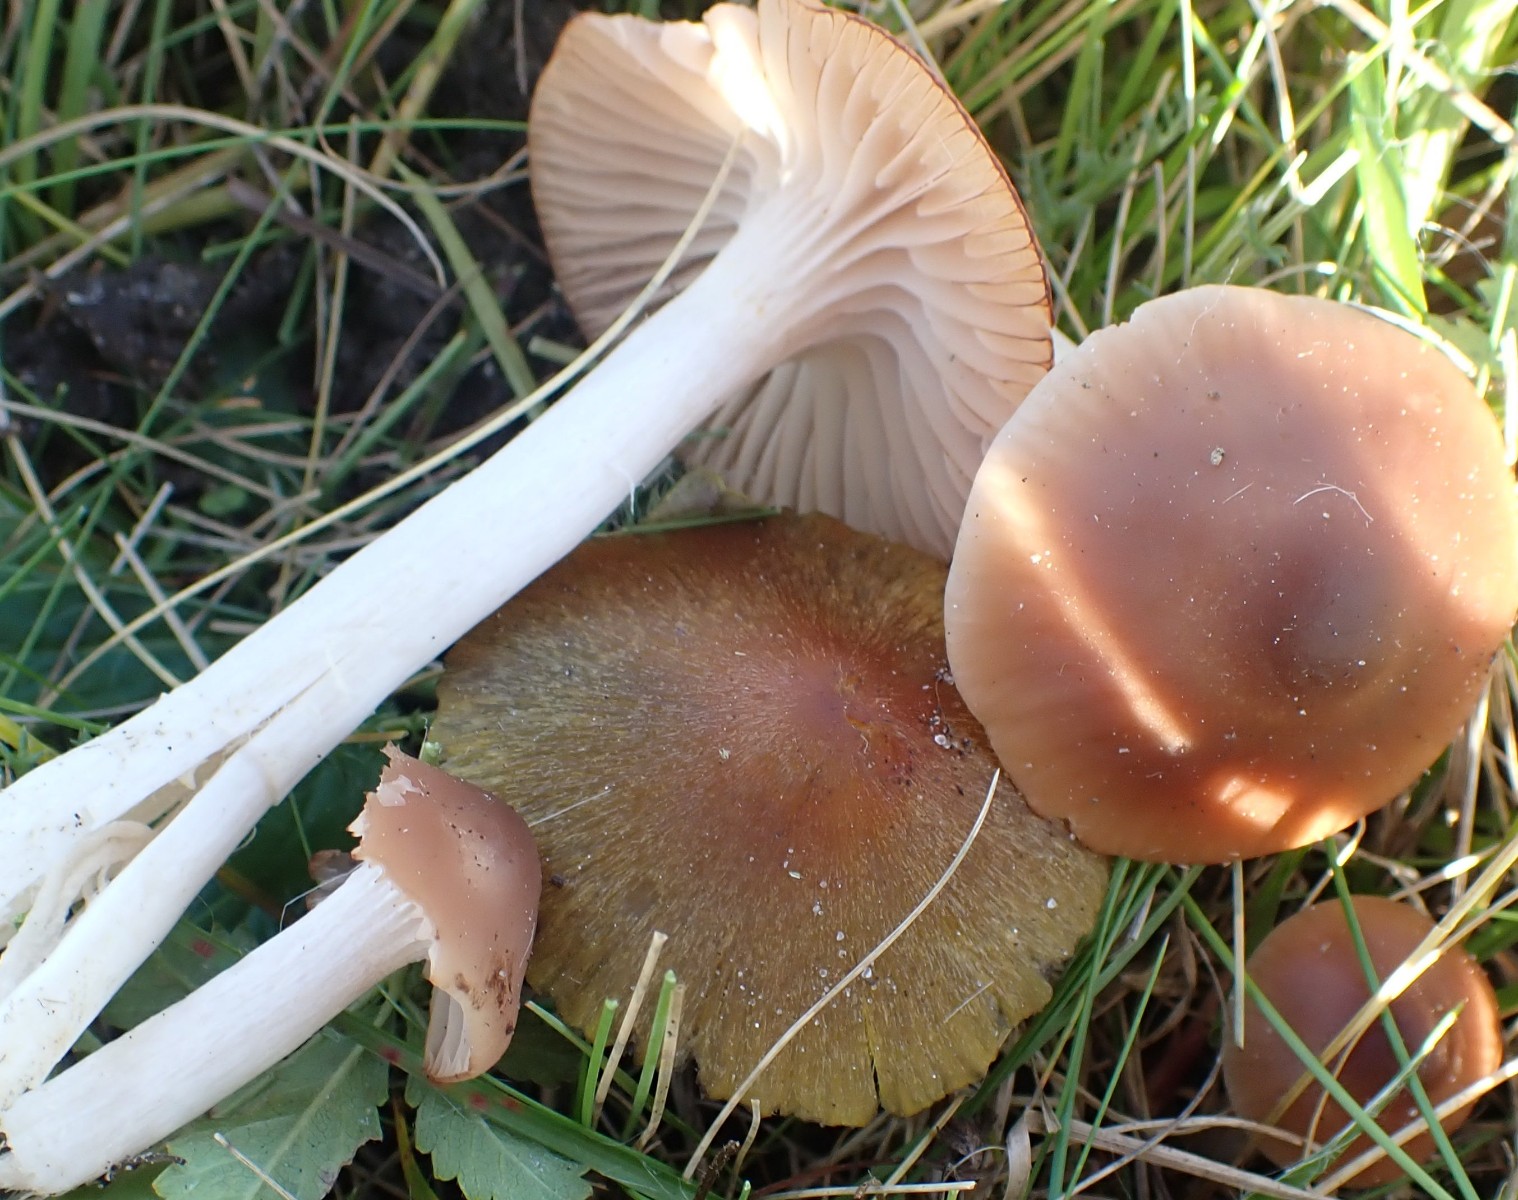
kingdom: Fungi
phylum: Basidiomycota
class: Agaricomycetes
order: Agaricales
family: Hygrophoraceae
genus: Cuphophyllus
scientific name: Cuphophyllus colemannianus
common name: rødbrun vokshat
